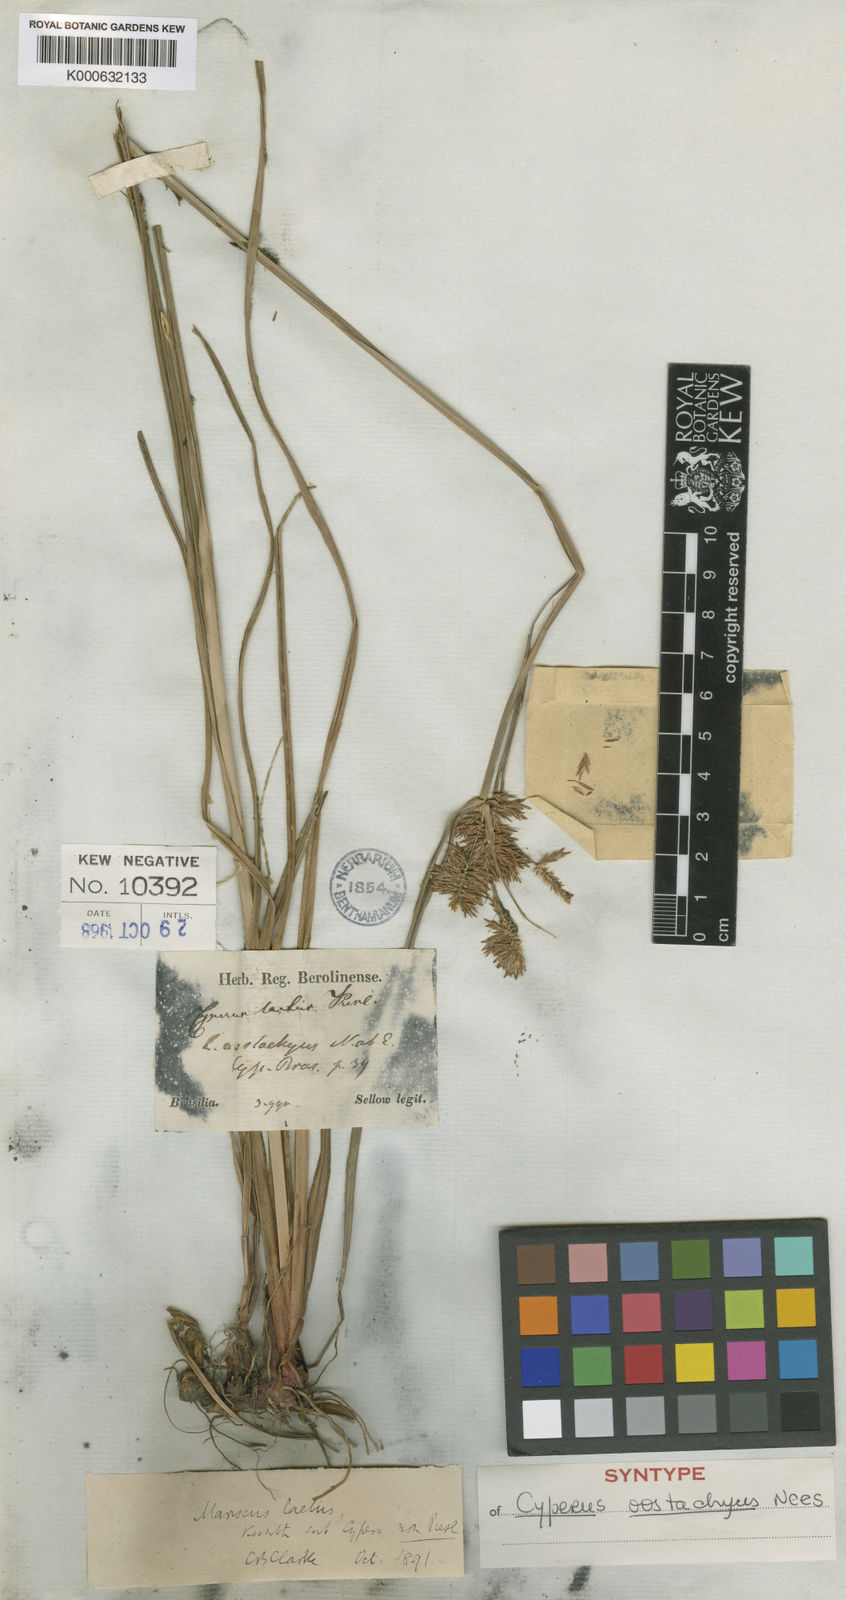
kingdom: Plantae
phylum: Tracheophyta
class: Liliopsida
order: Poales
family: Cyperaceae
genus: Cyperus
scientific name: Cyperus rigens
